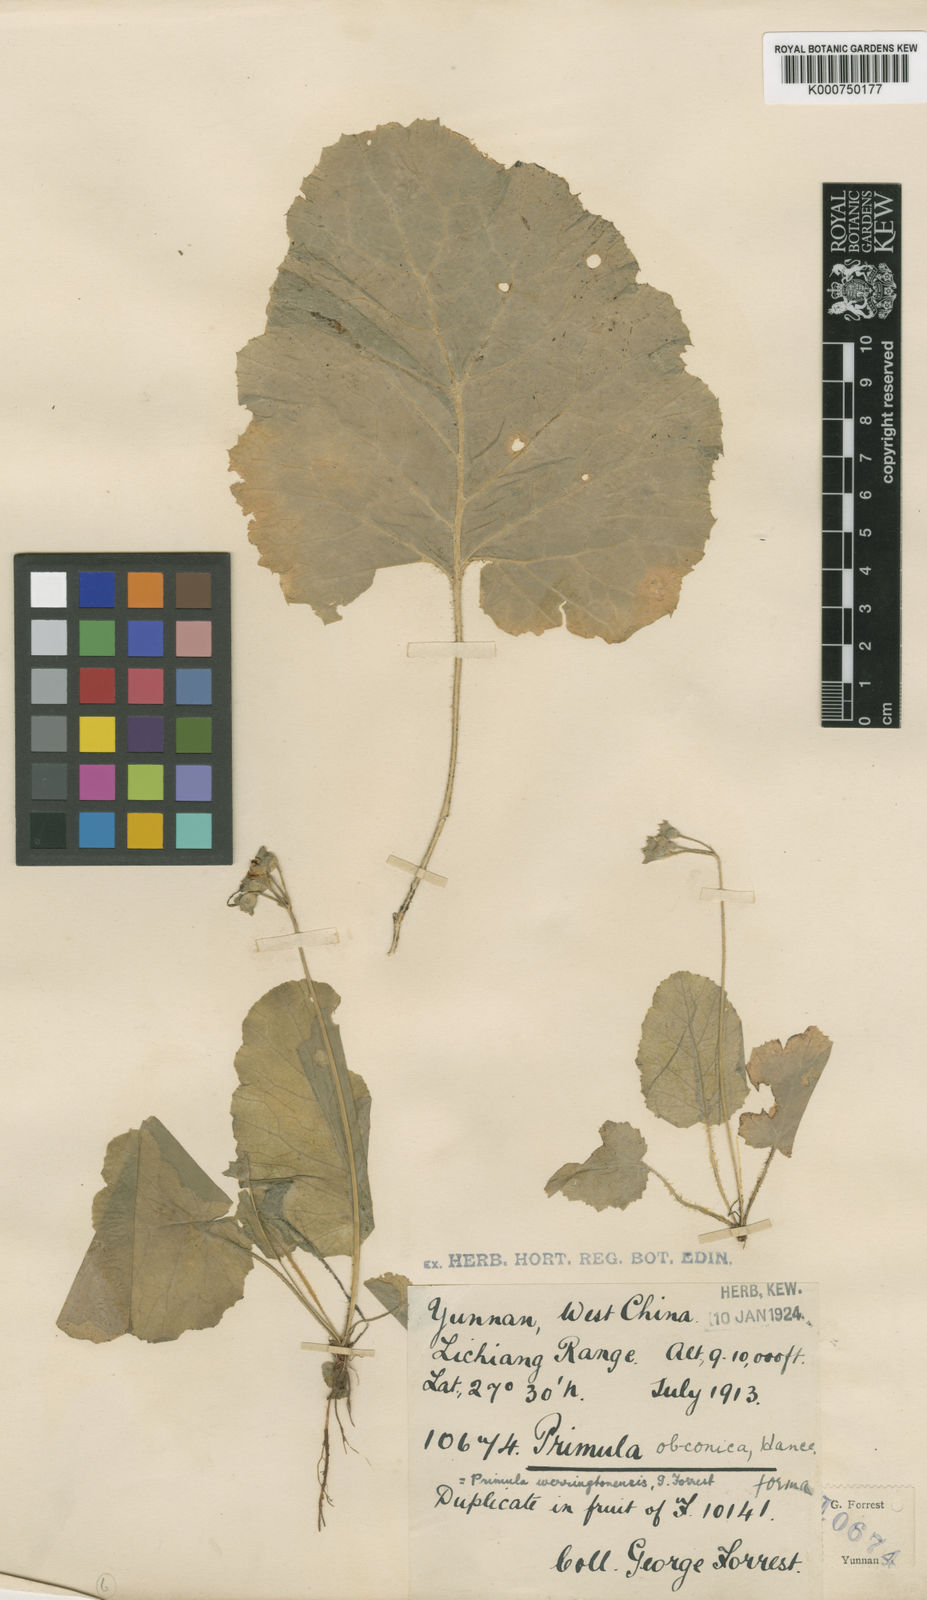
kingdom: Plantae
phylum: Tracheophyta
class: Magnoliopsida
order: Ericales
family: Primulaceae
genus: Primula
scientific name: Primula obconica
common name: German primrose
